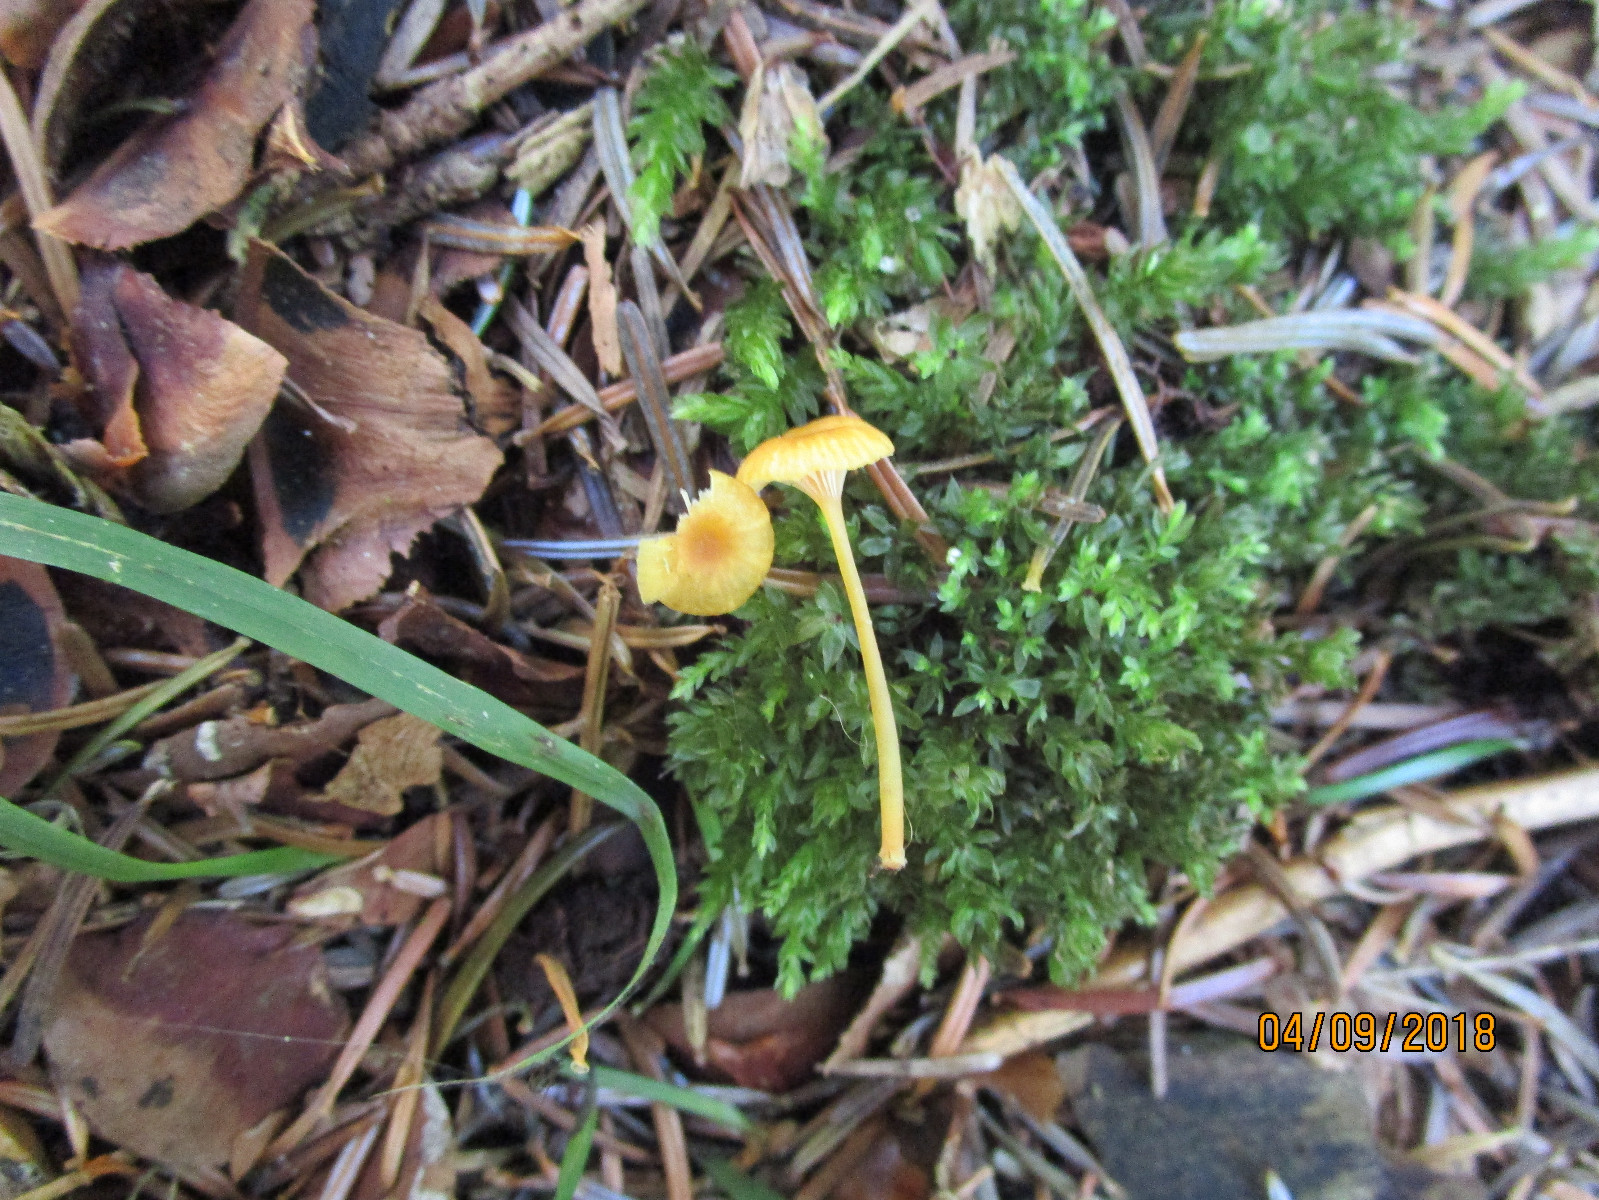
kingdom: Fungi
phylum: Basidiomycota
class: Agaricomycetes
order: Hymenochaetales
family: Rickenellaceae
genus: Rickenella
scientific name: Rickenella fibula
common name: orange mosnavlehat
